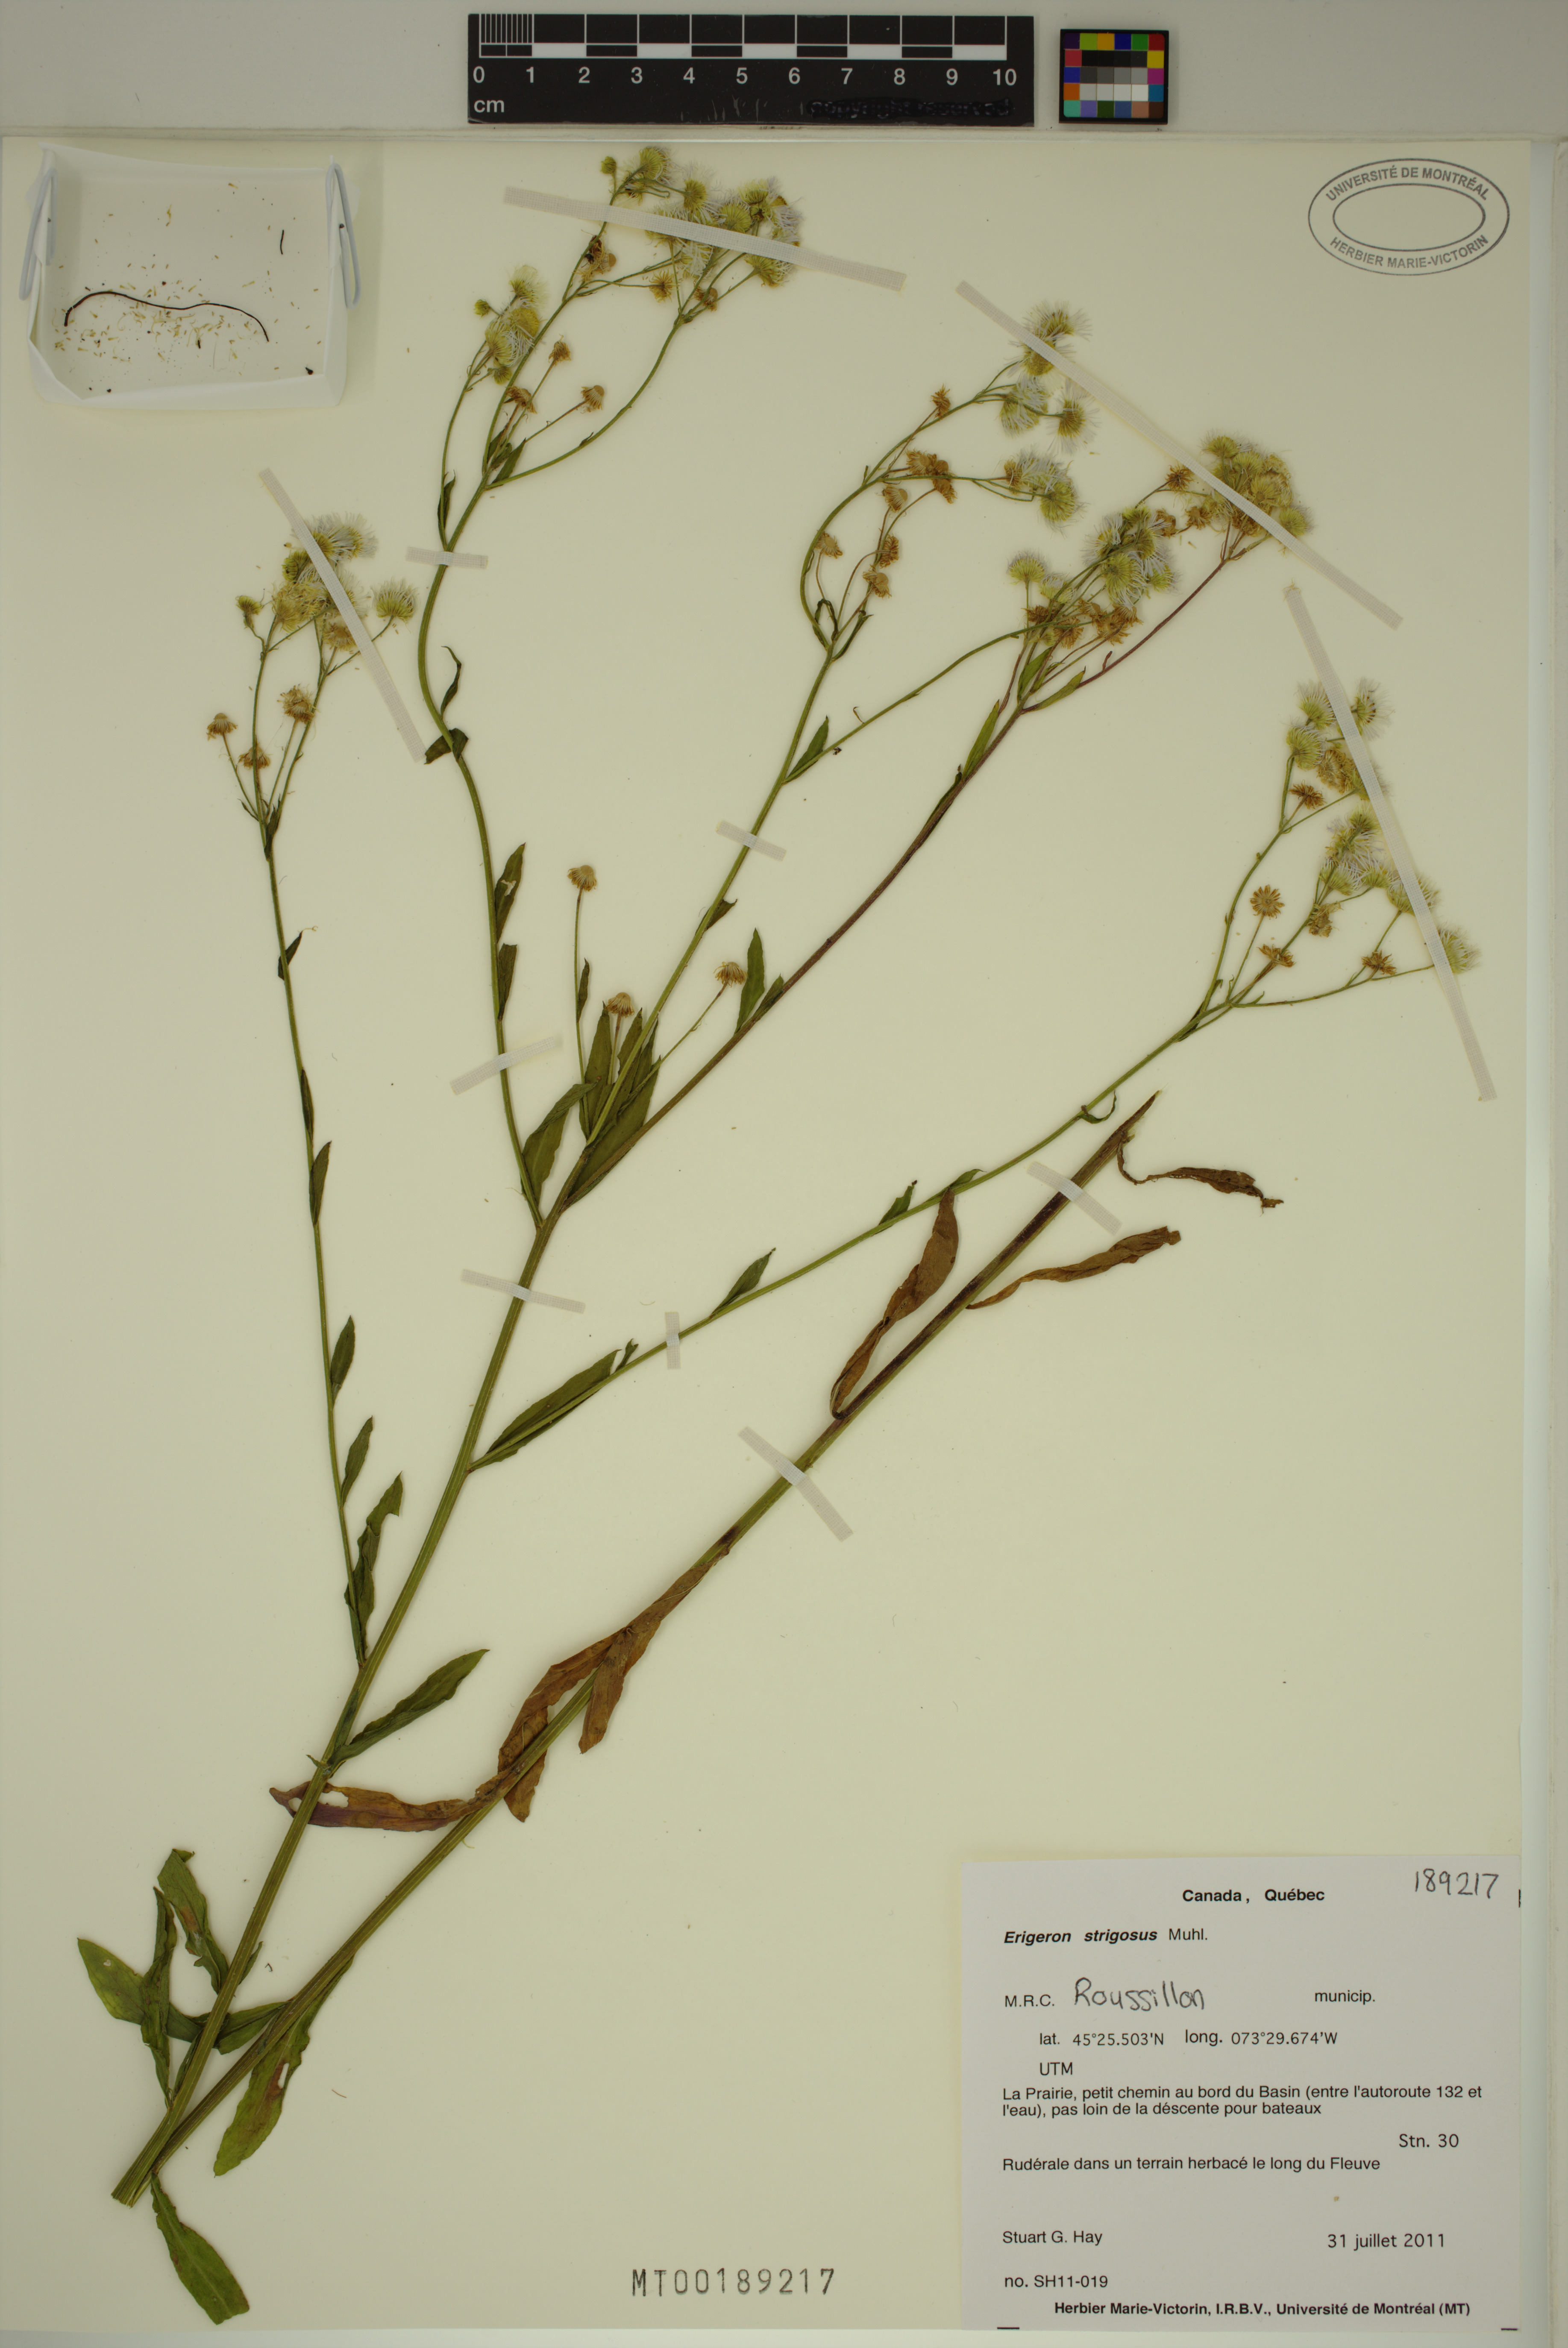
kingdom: Plantae
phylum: Tracheophyta
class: Magnoliopsida
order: Asterales
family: Asteraceae
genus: Erigeron
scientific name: Erigeron annuus
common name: Tall fleabane
